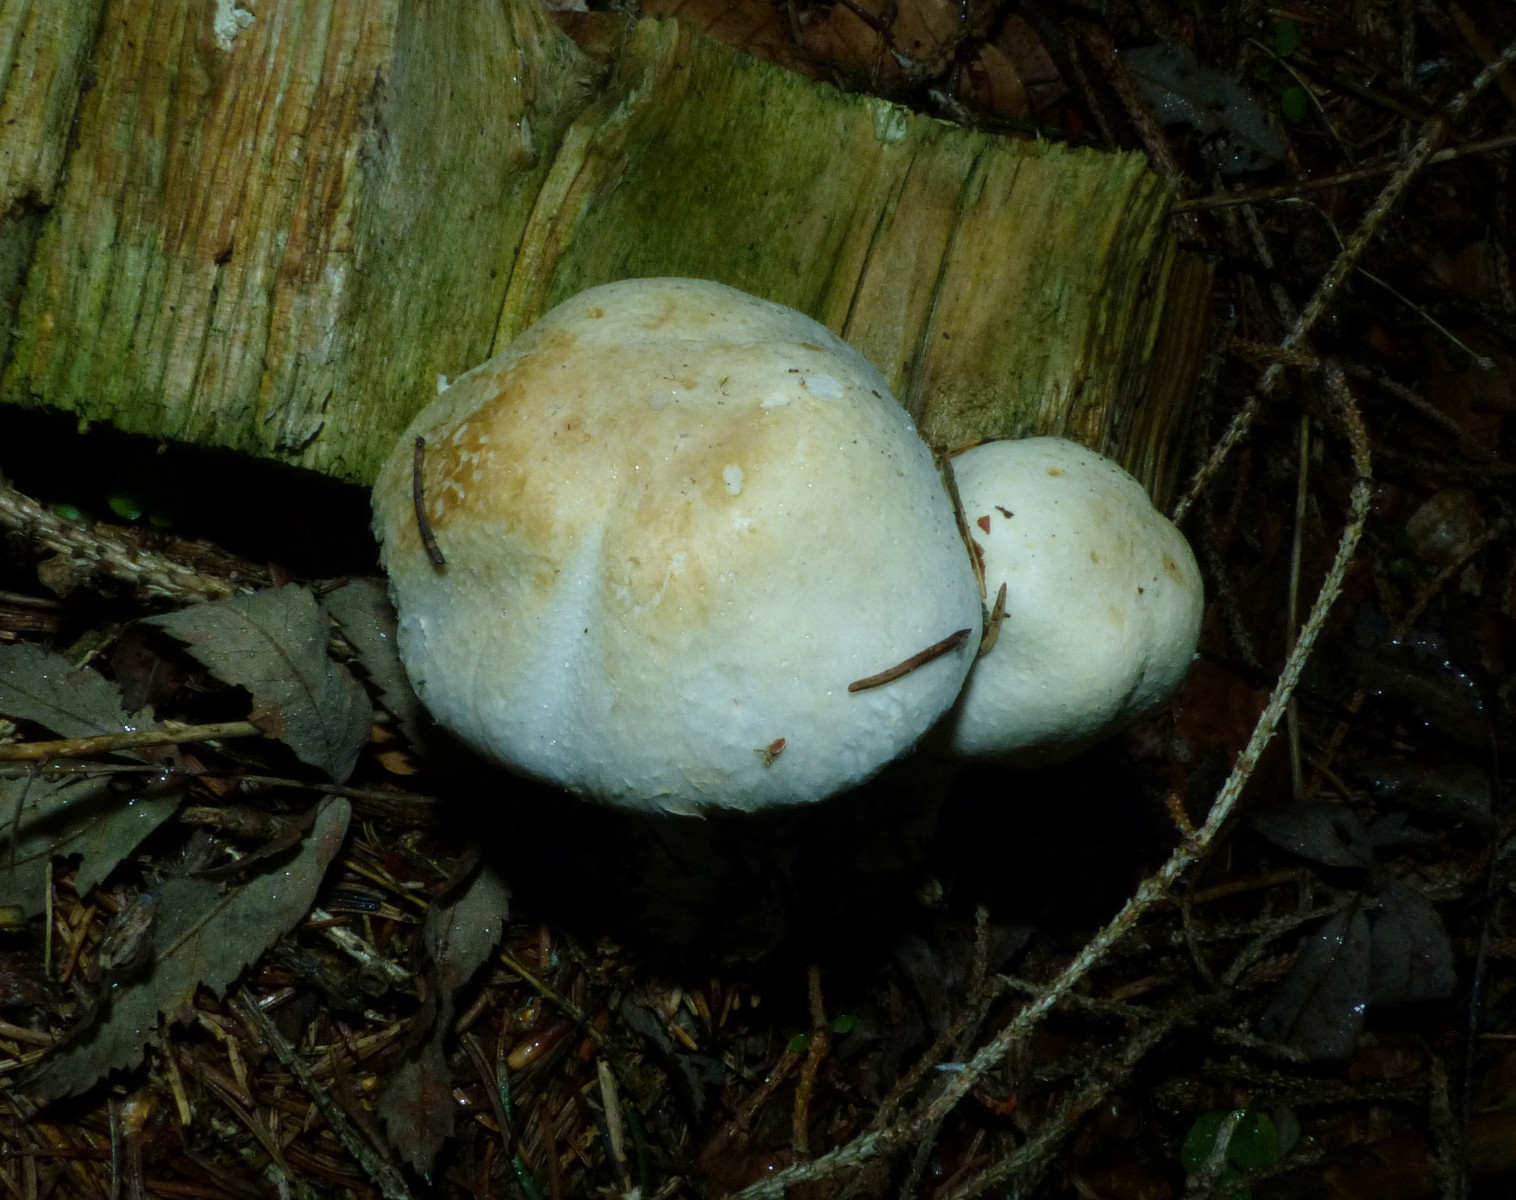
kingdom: Fungi
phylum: Basidiomycota
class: Agaricomycetes
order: Agaricales
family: Agaricaceae
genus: Agaricus
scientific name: Agaricus sylvicola
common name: gulhvid champignon
